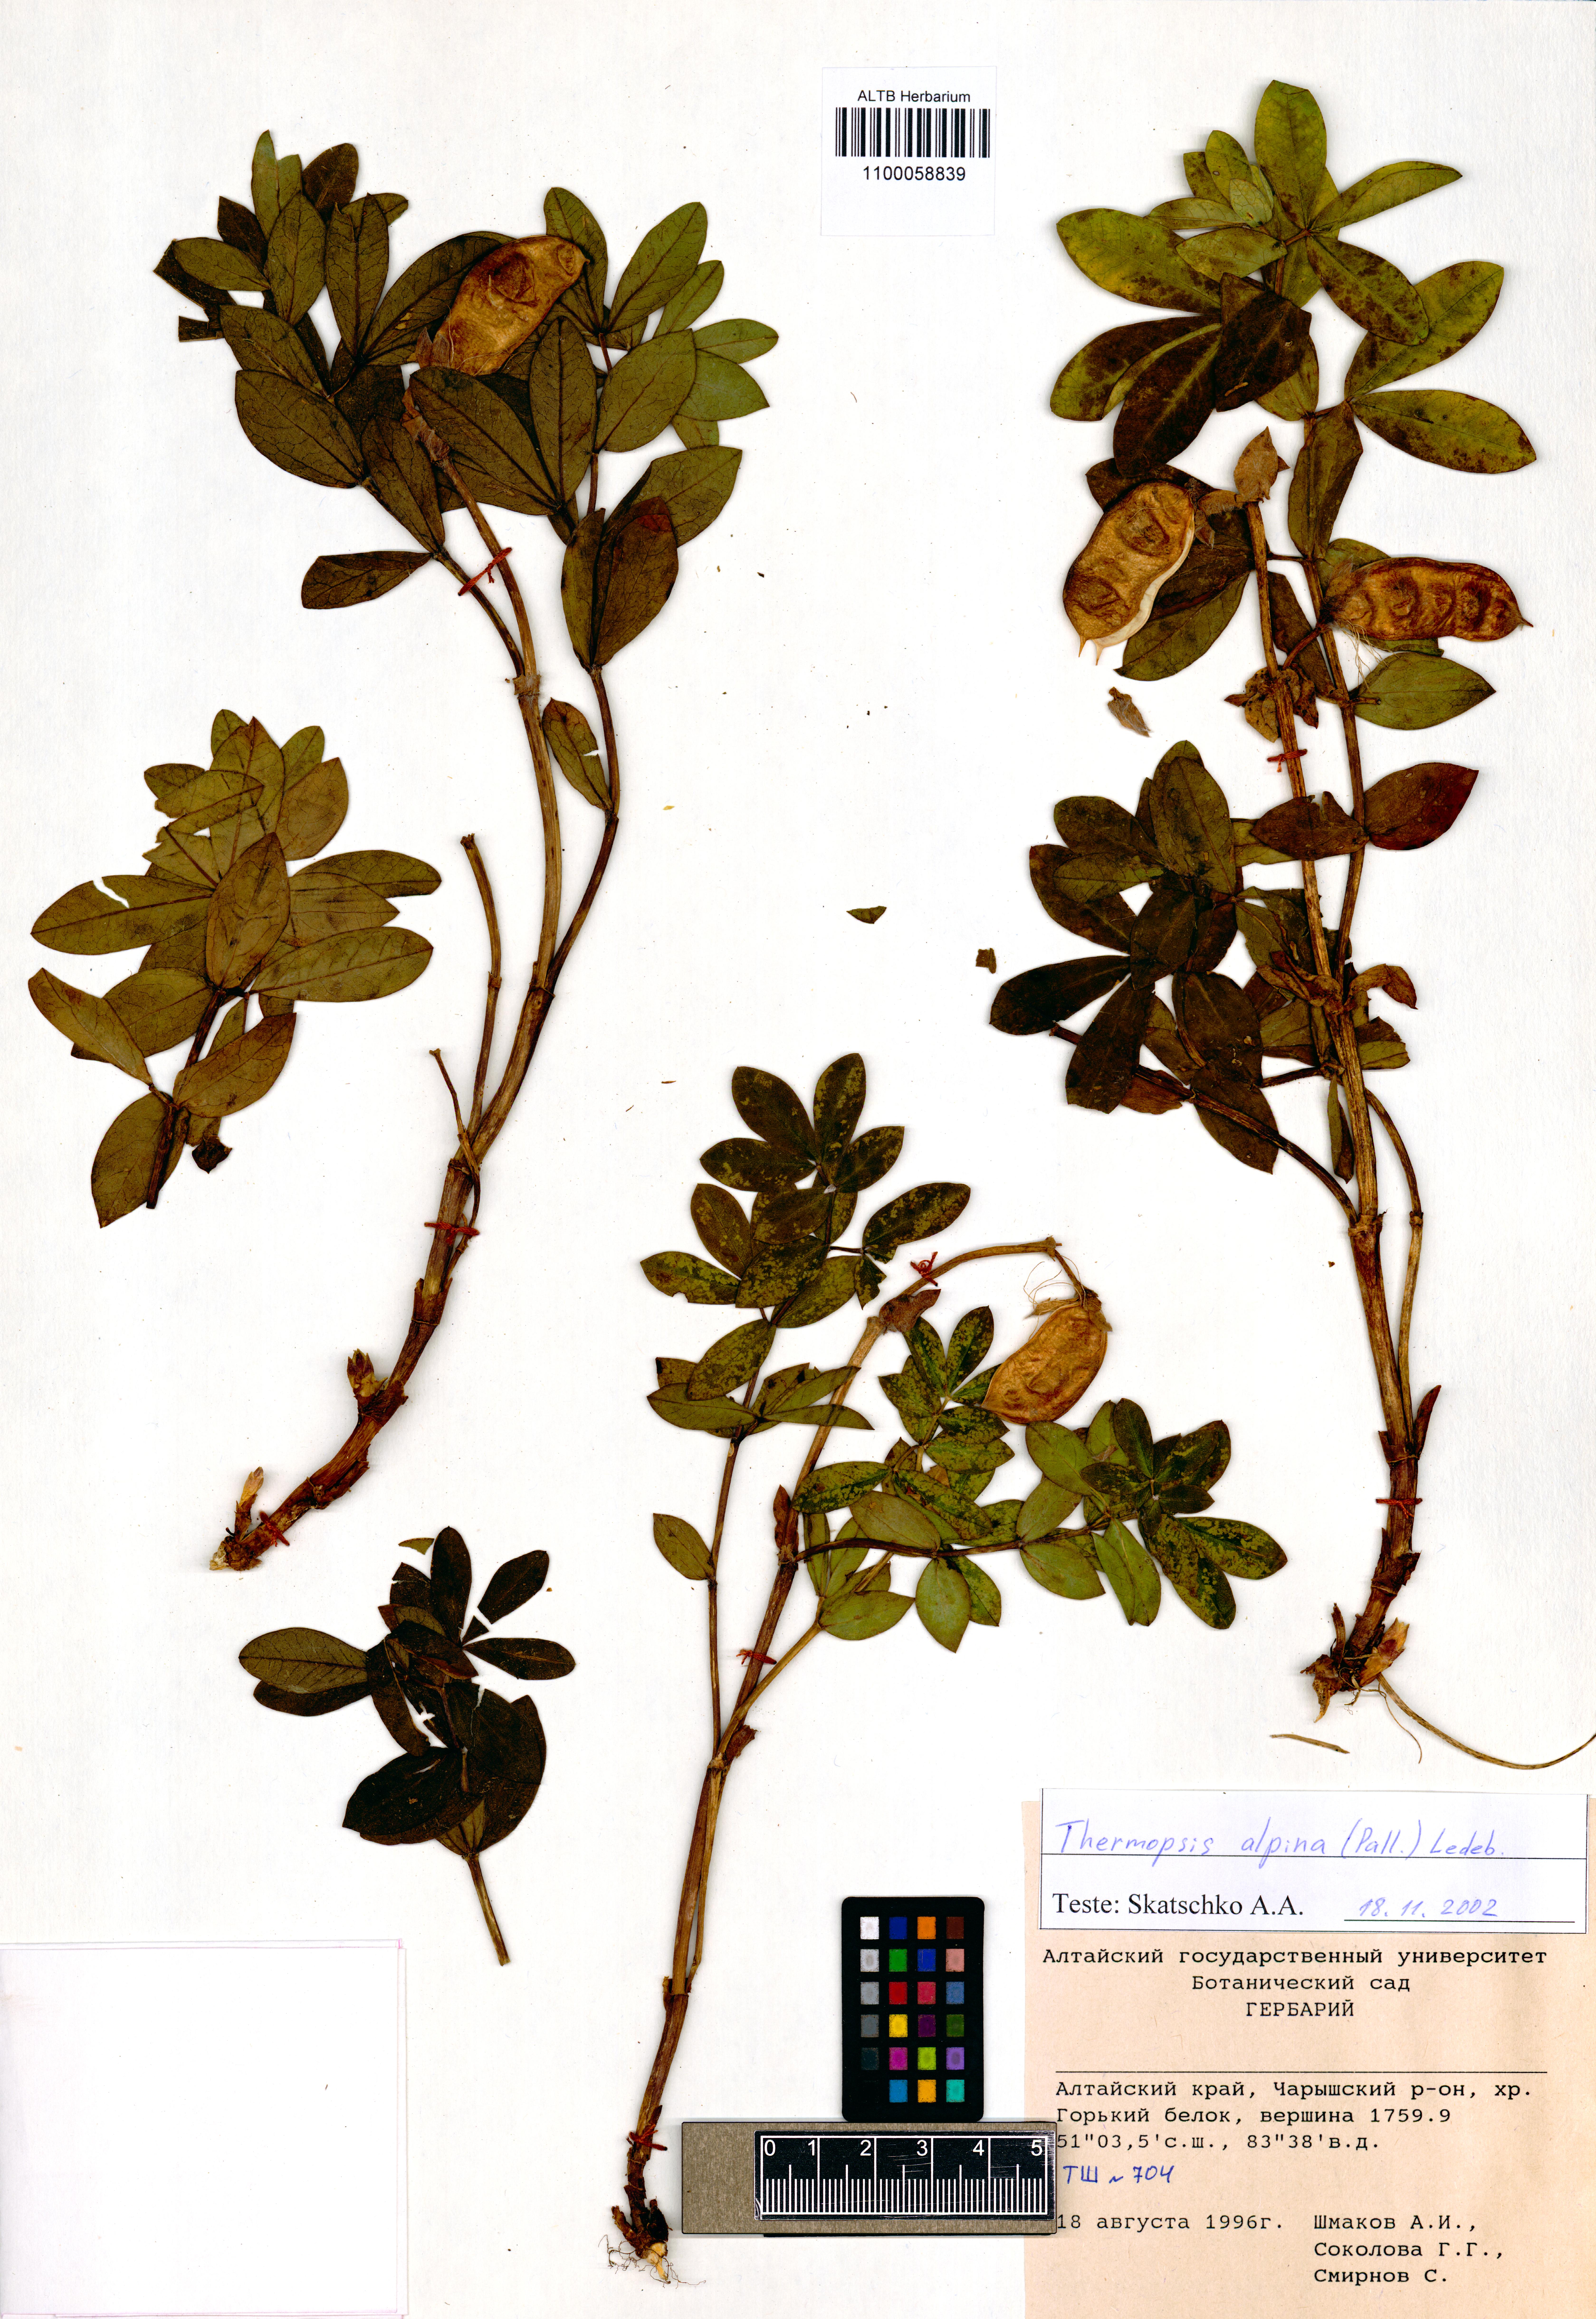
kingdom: Plantae
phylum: Tracheophyta
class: Magnoliopsida
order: Fabales
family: Fabaceae
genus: Thermopsis
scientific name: Thermopsis alpina
